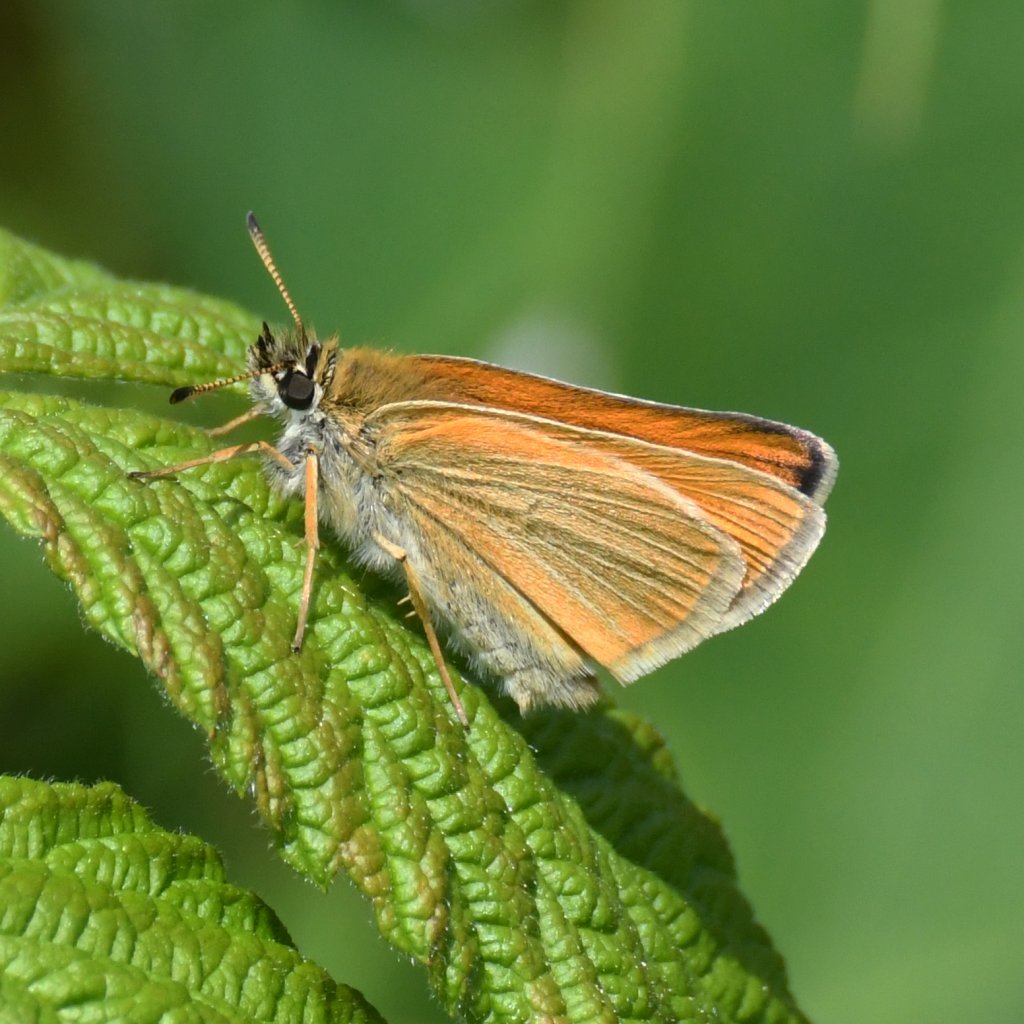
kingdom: Animalia
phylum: Arthropoda
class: Insecta
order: Lepidoptera
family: Hesperiidae
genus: Thymelicus
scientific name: Thymelicus lineola
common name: European Skipper
